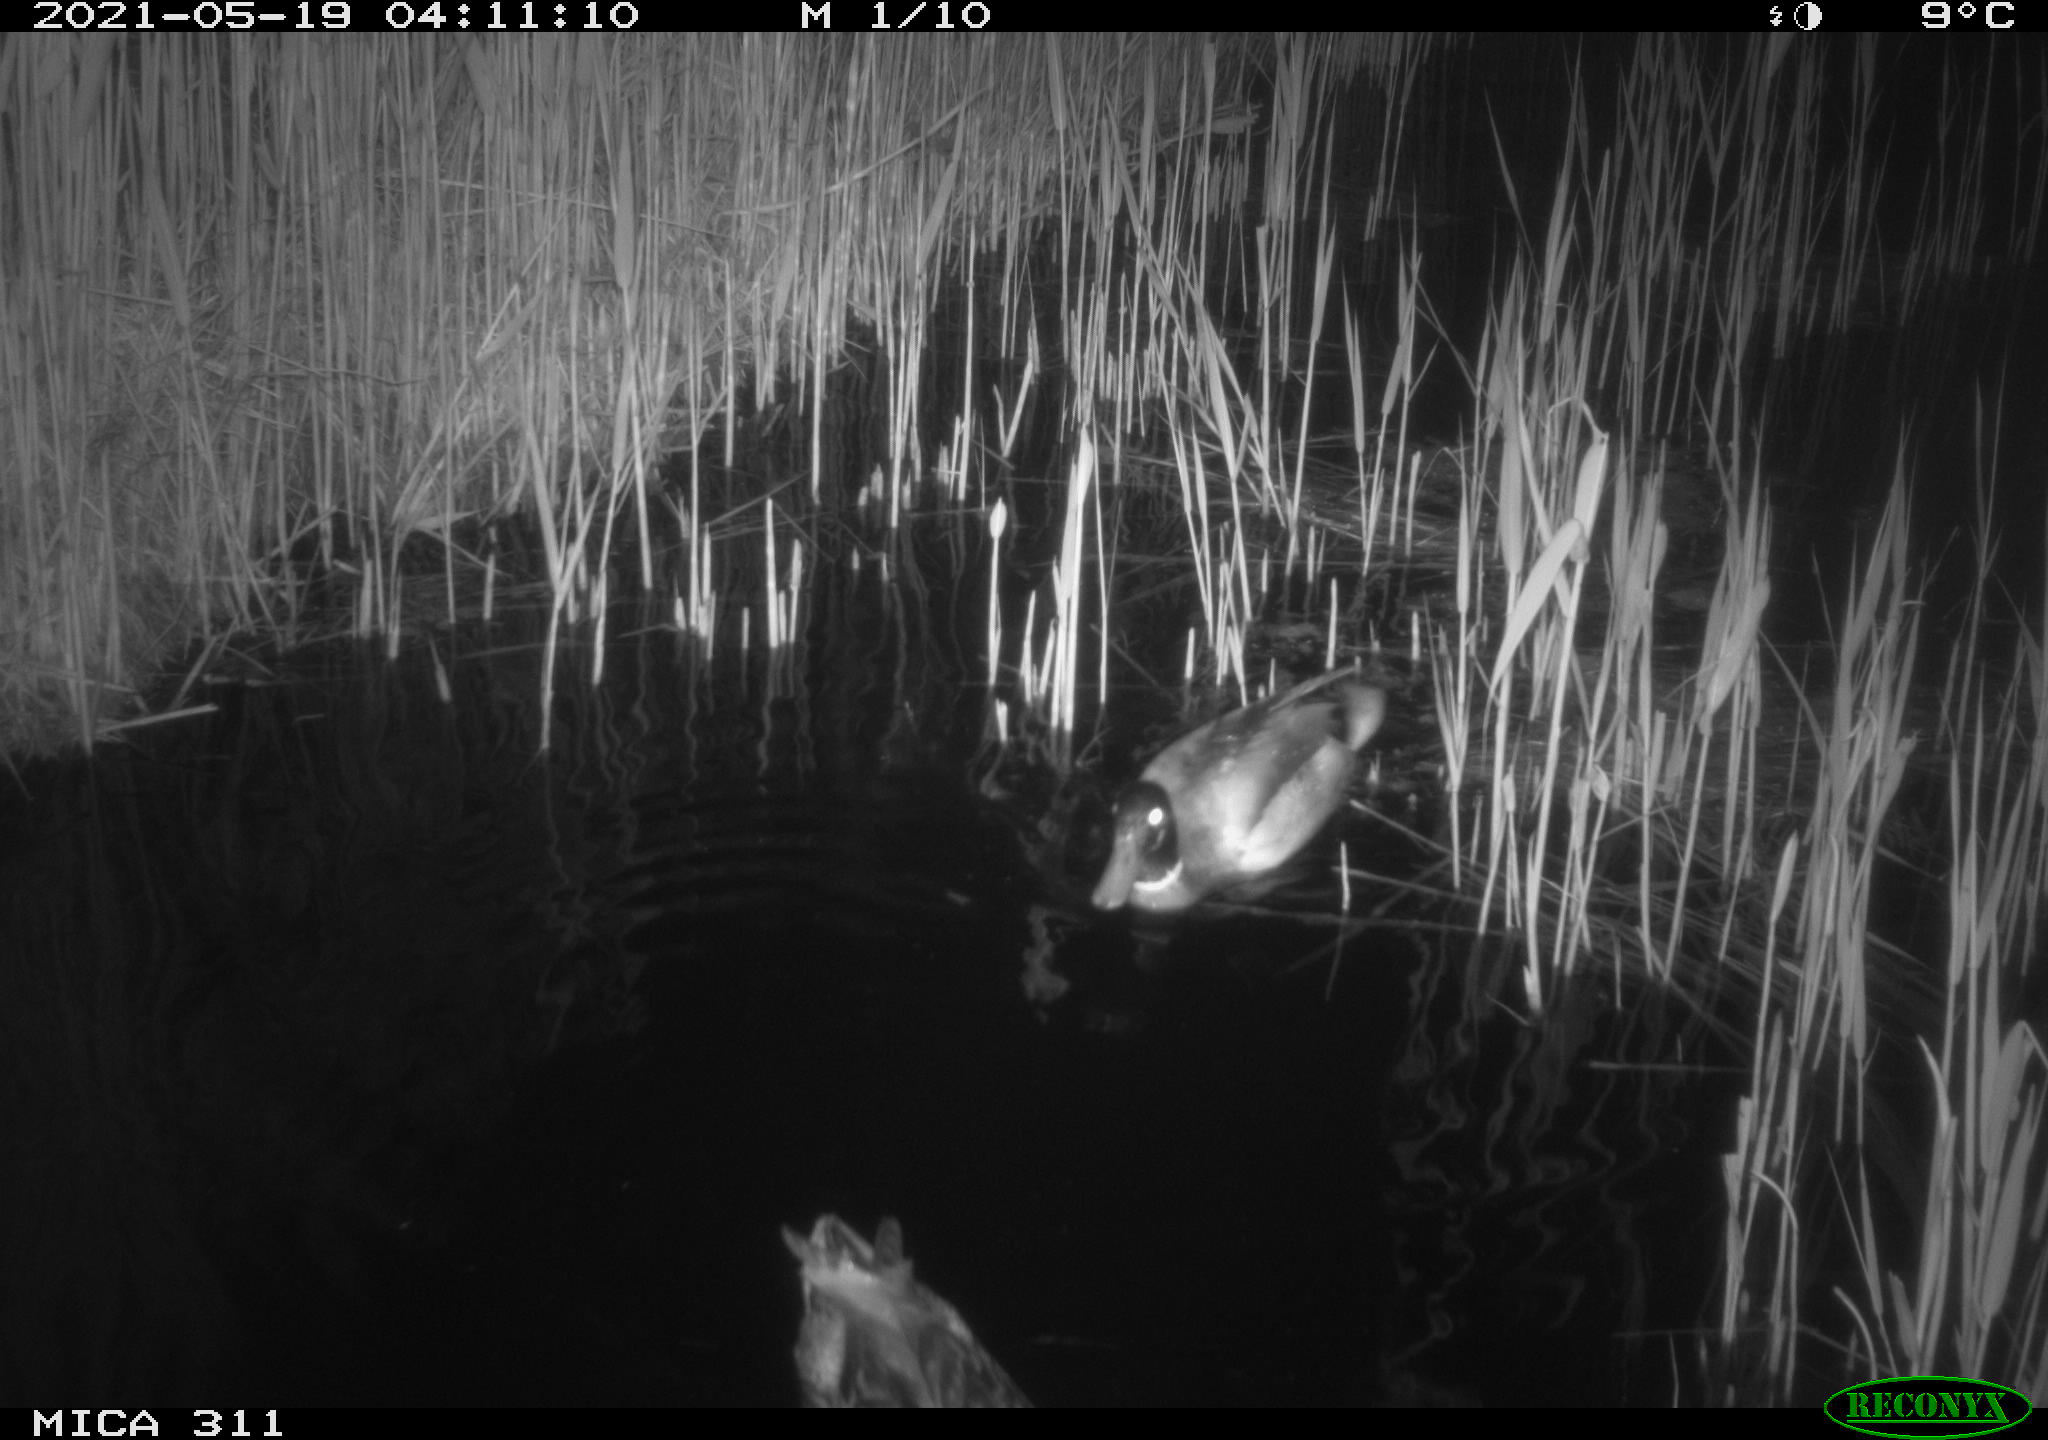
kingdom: Animalia
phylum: Chordata
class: Aves
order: Anseriformes
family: Anatidae
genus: Anas
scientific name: Anas
